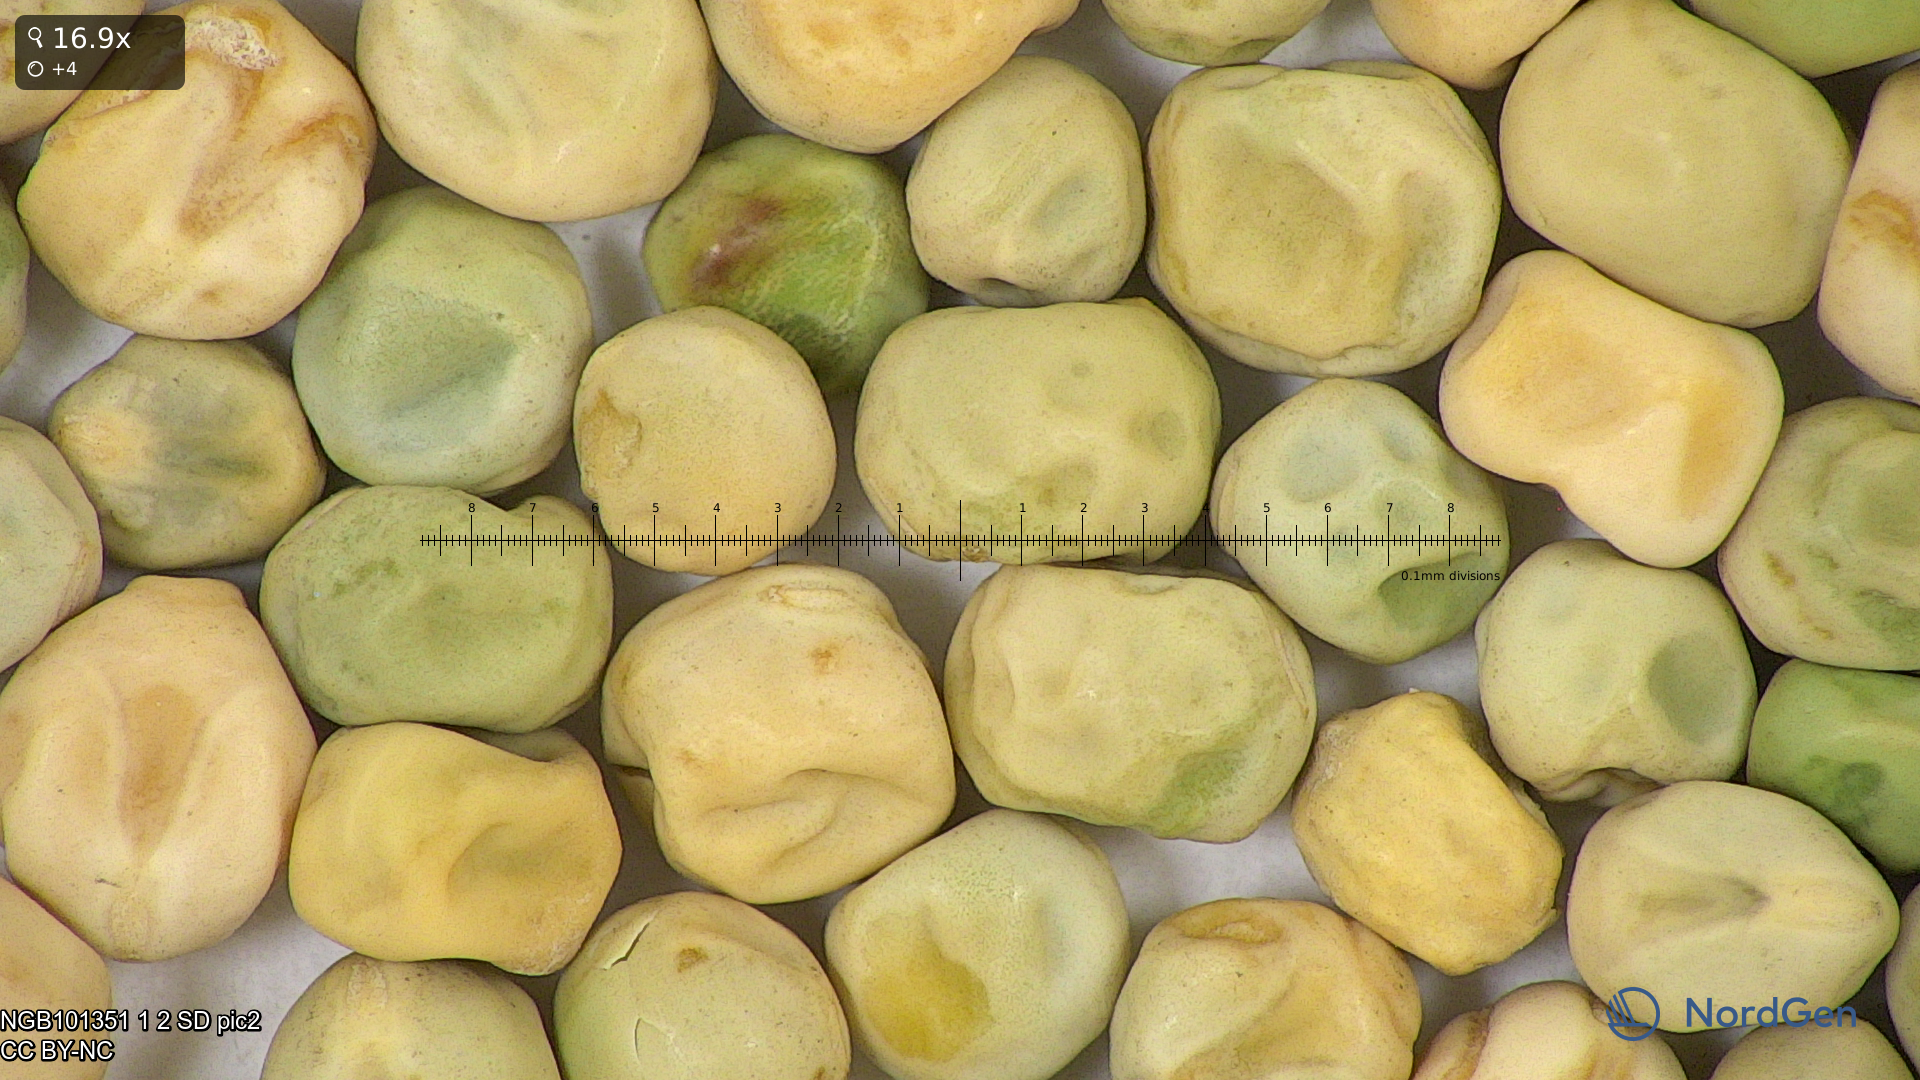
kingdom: Plantae
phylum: Tracheophyta
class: Magnoliopsida
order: Fabales
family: Fabaceae
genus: Lathyrus
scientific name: Lathyrus oleraceus
